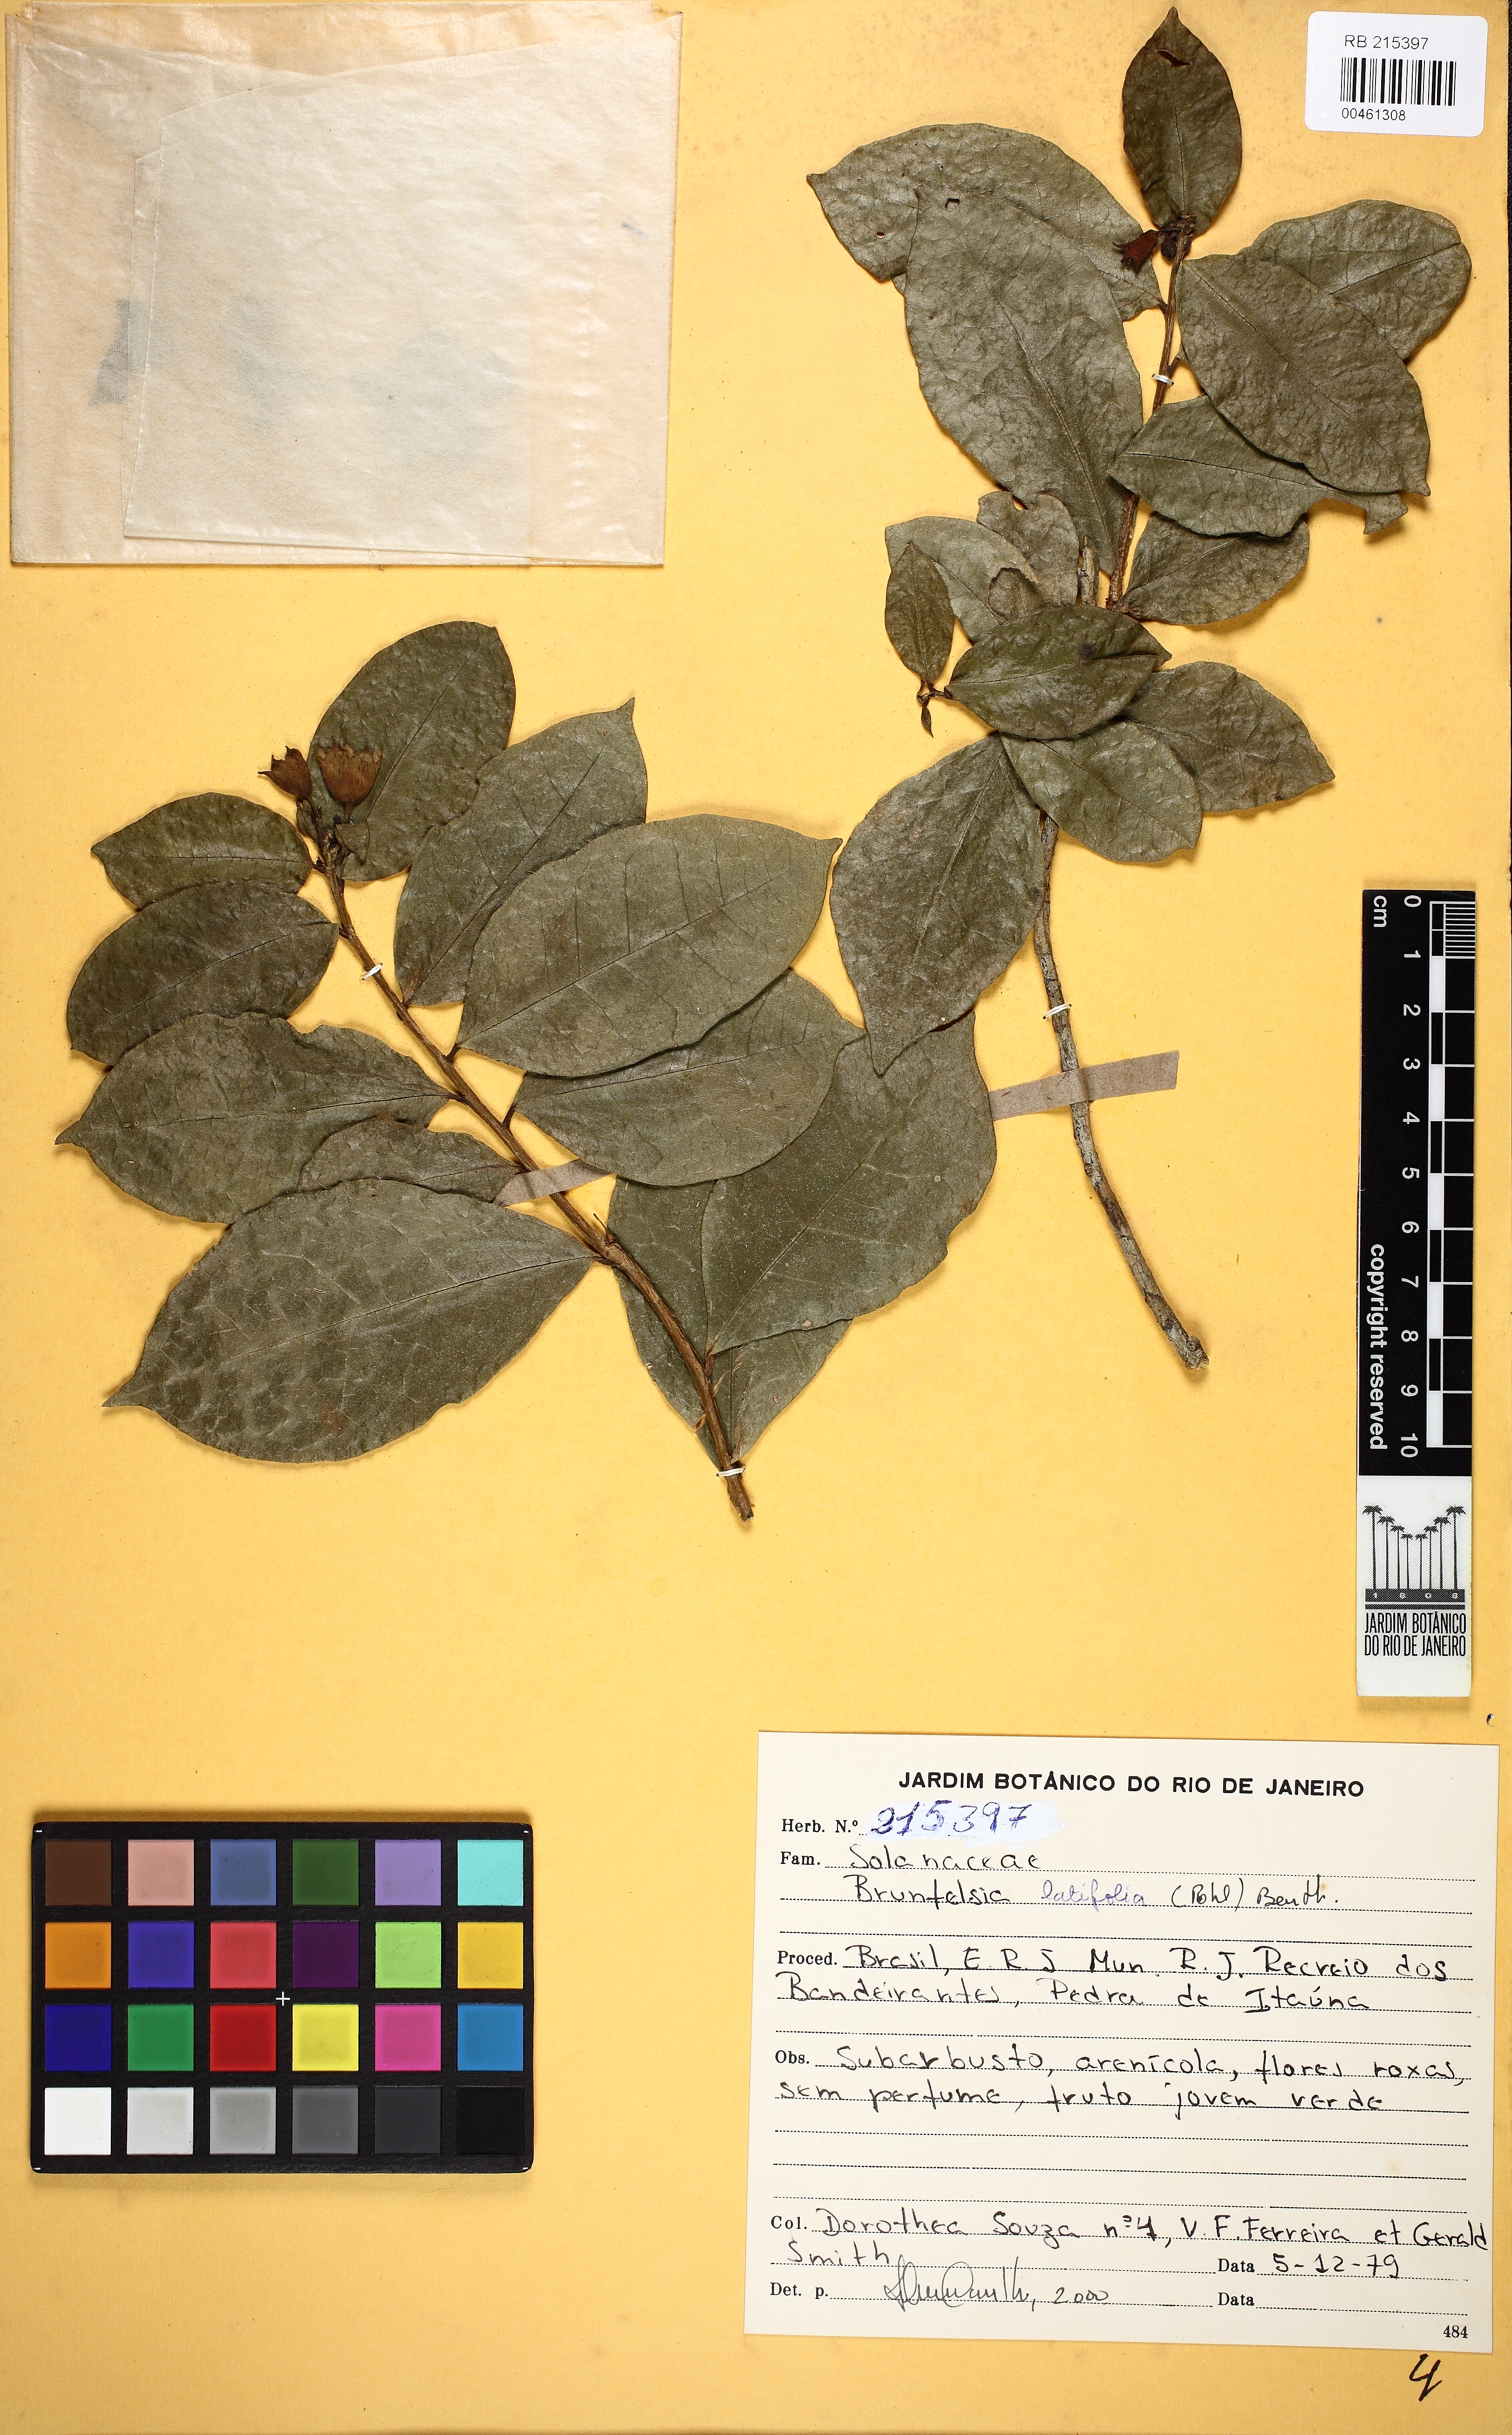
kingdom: Plantae
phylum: Tracheophyta
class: Magnoliopsida
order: Solanales
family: Solanaceae
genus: Brunfelsia
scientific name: Brunfelsia latifolia
